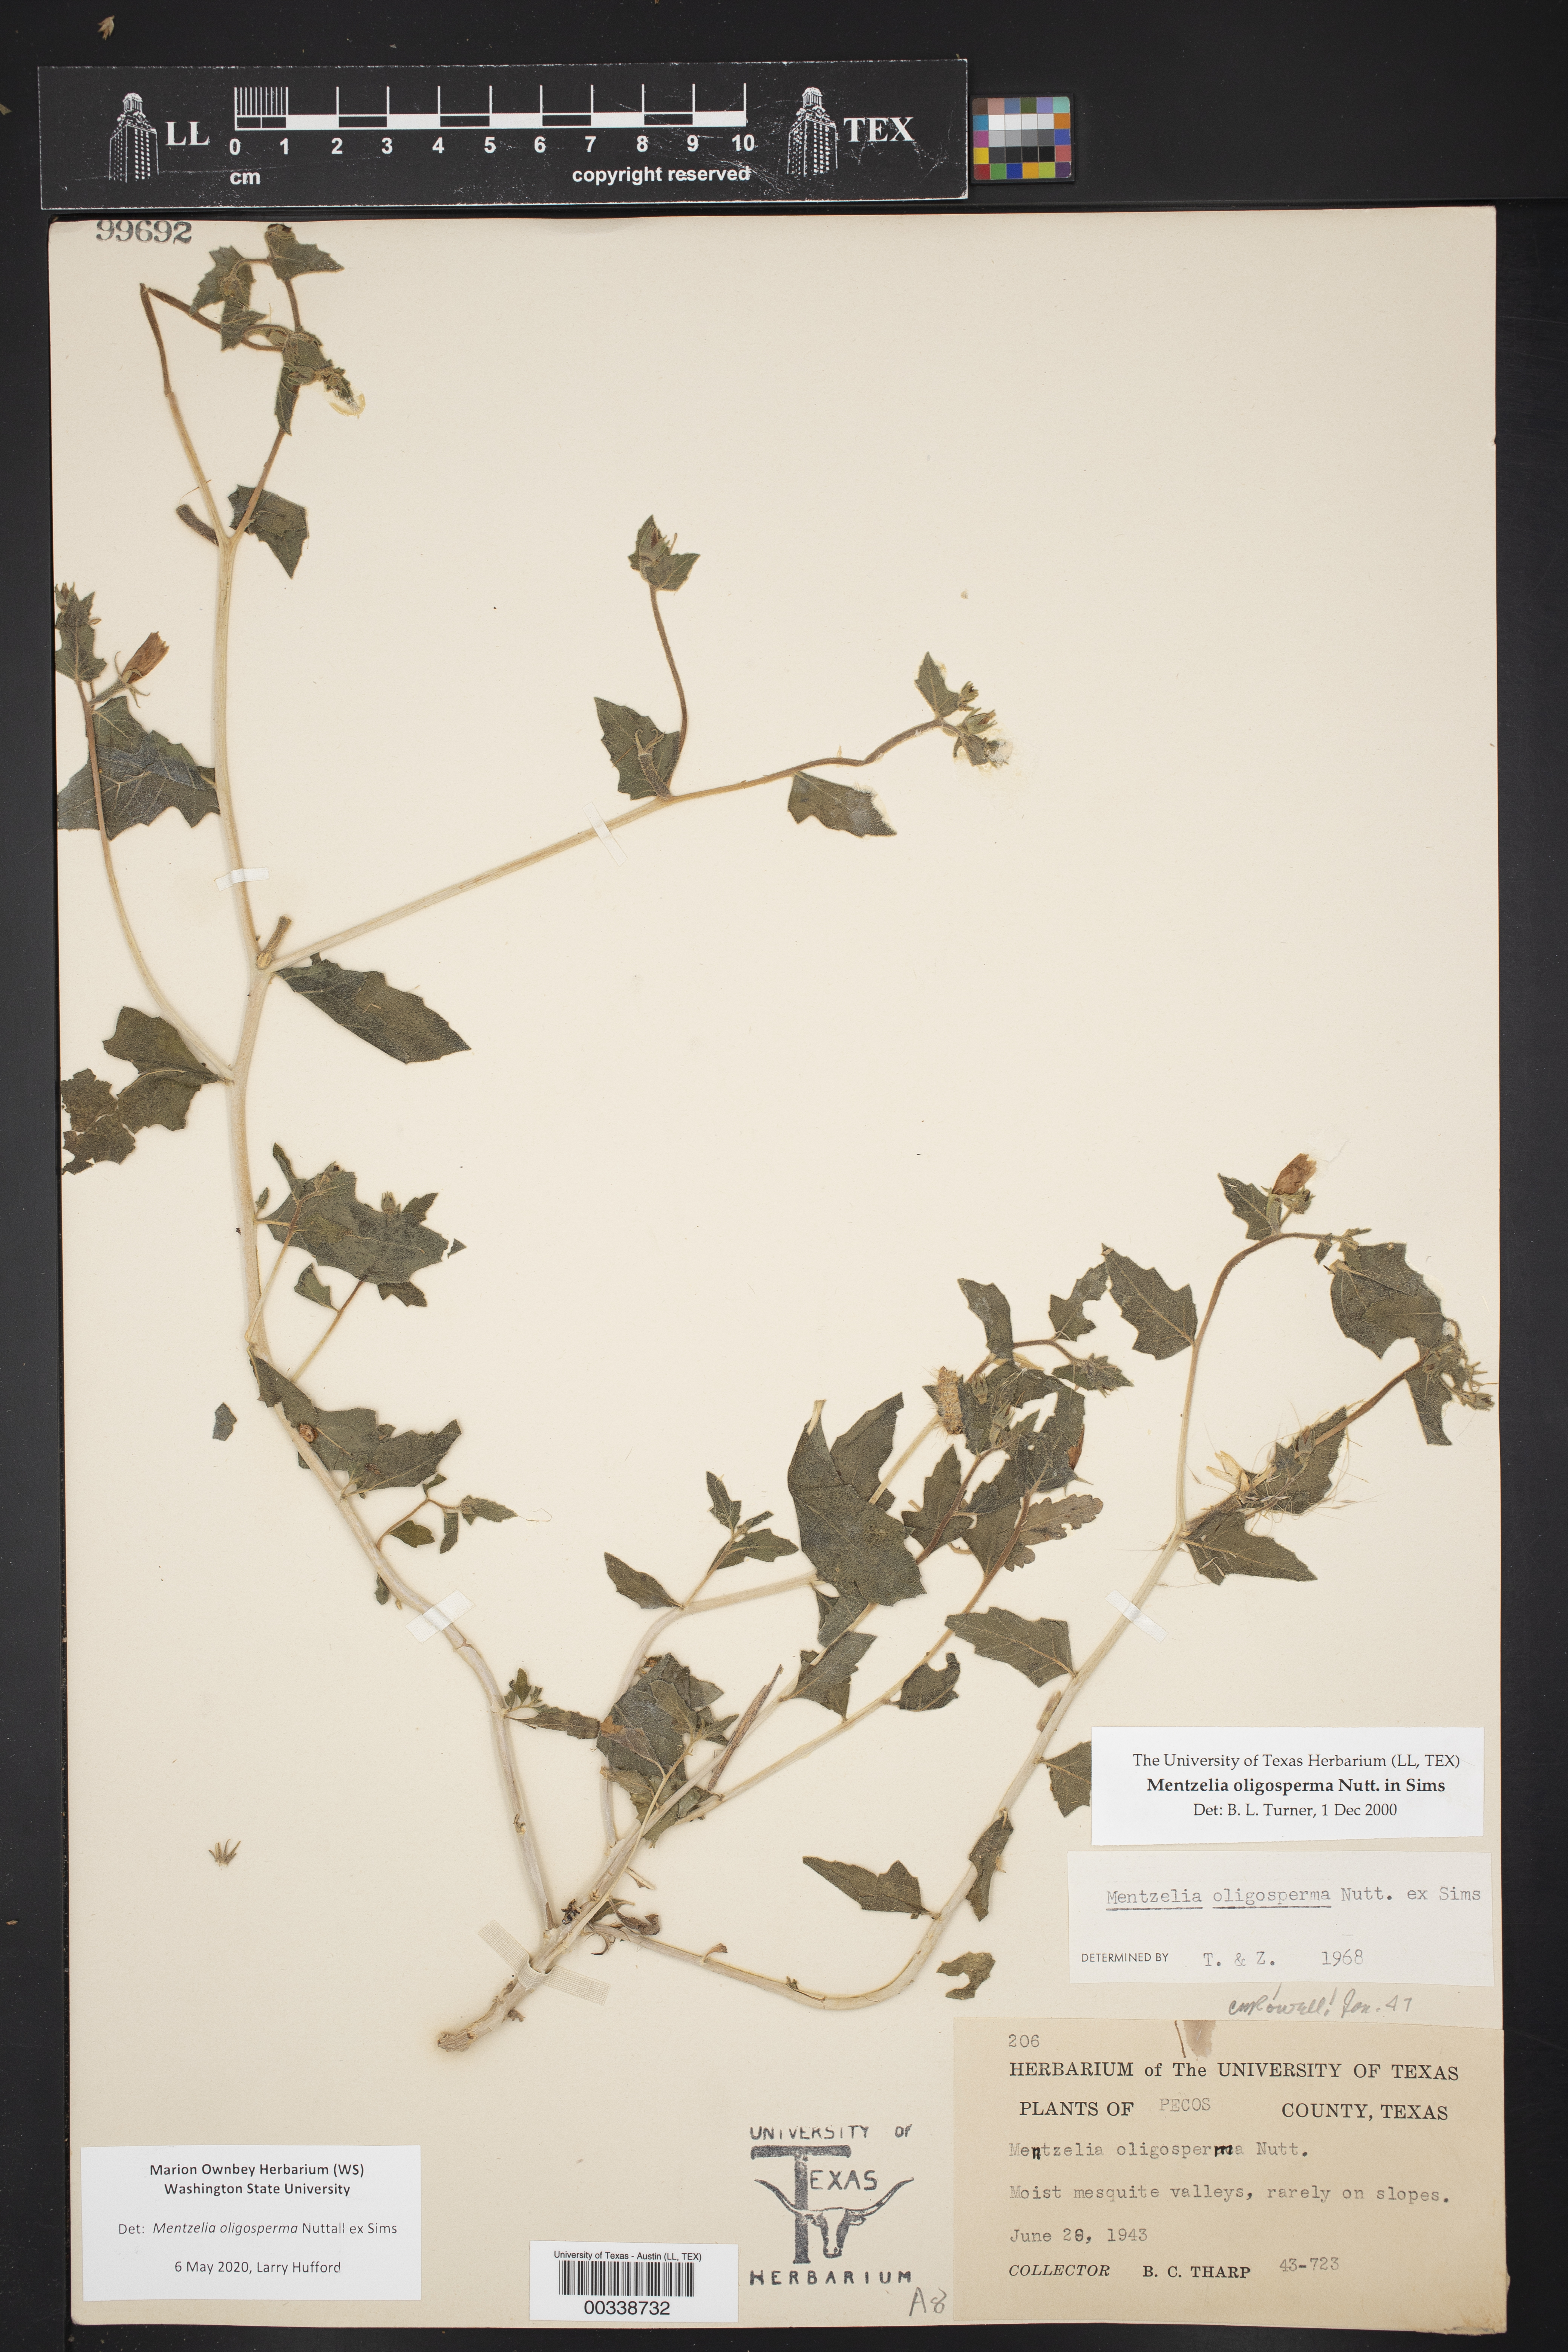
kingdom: Plantae
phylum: Tracheophyta
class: Magnoliopsida
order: Cornales
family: Loasaceae
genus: Mentzelia
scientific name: Mentzelia oligosperma
